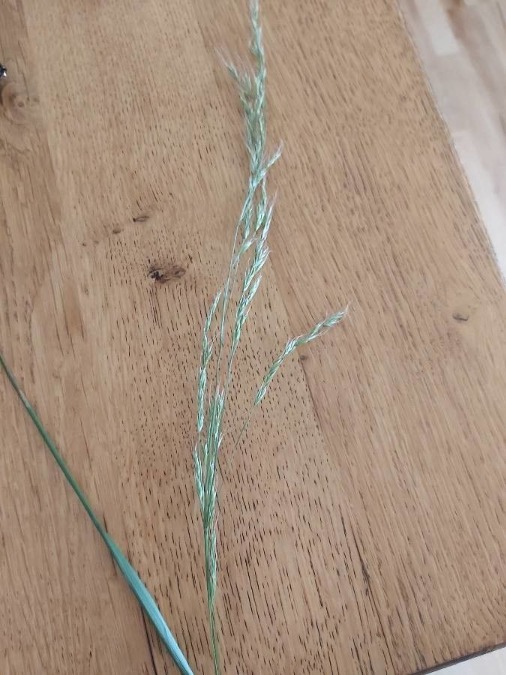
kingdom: Plantae
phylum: Tracheophyta
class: Liliopsida
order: Poales
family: Poaceae
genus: Lolium
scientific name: Lolium giganteum
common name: Kæmpe-svingel
